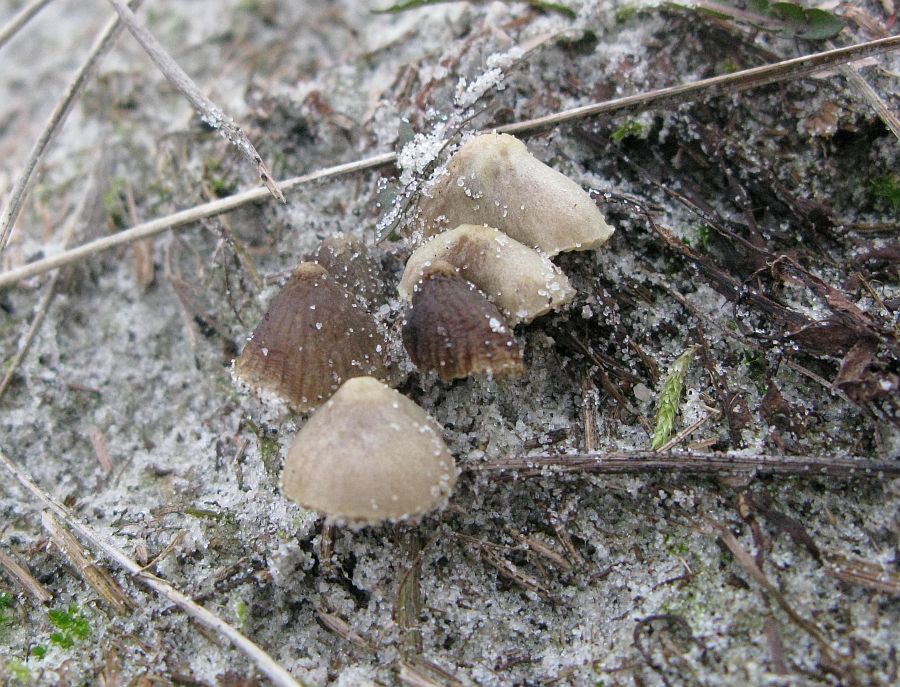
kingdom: Fungi
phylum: Basidiomycota
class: Agaricomycetes
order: Agaricales
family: Mycenaceae
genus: Mycena
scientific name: Mycena chlorantha
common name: klit-huesvamp
